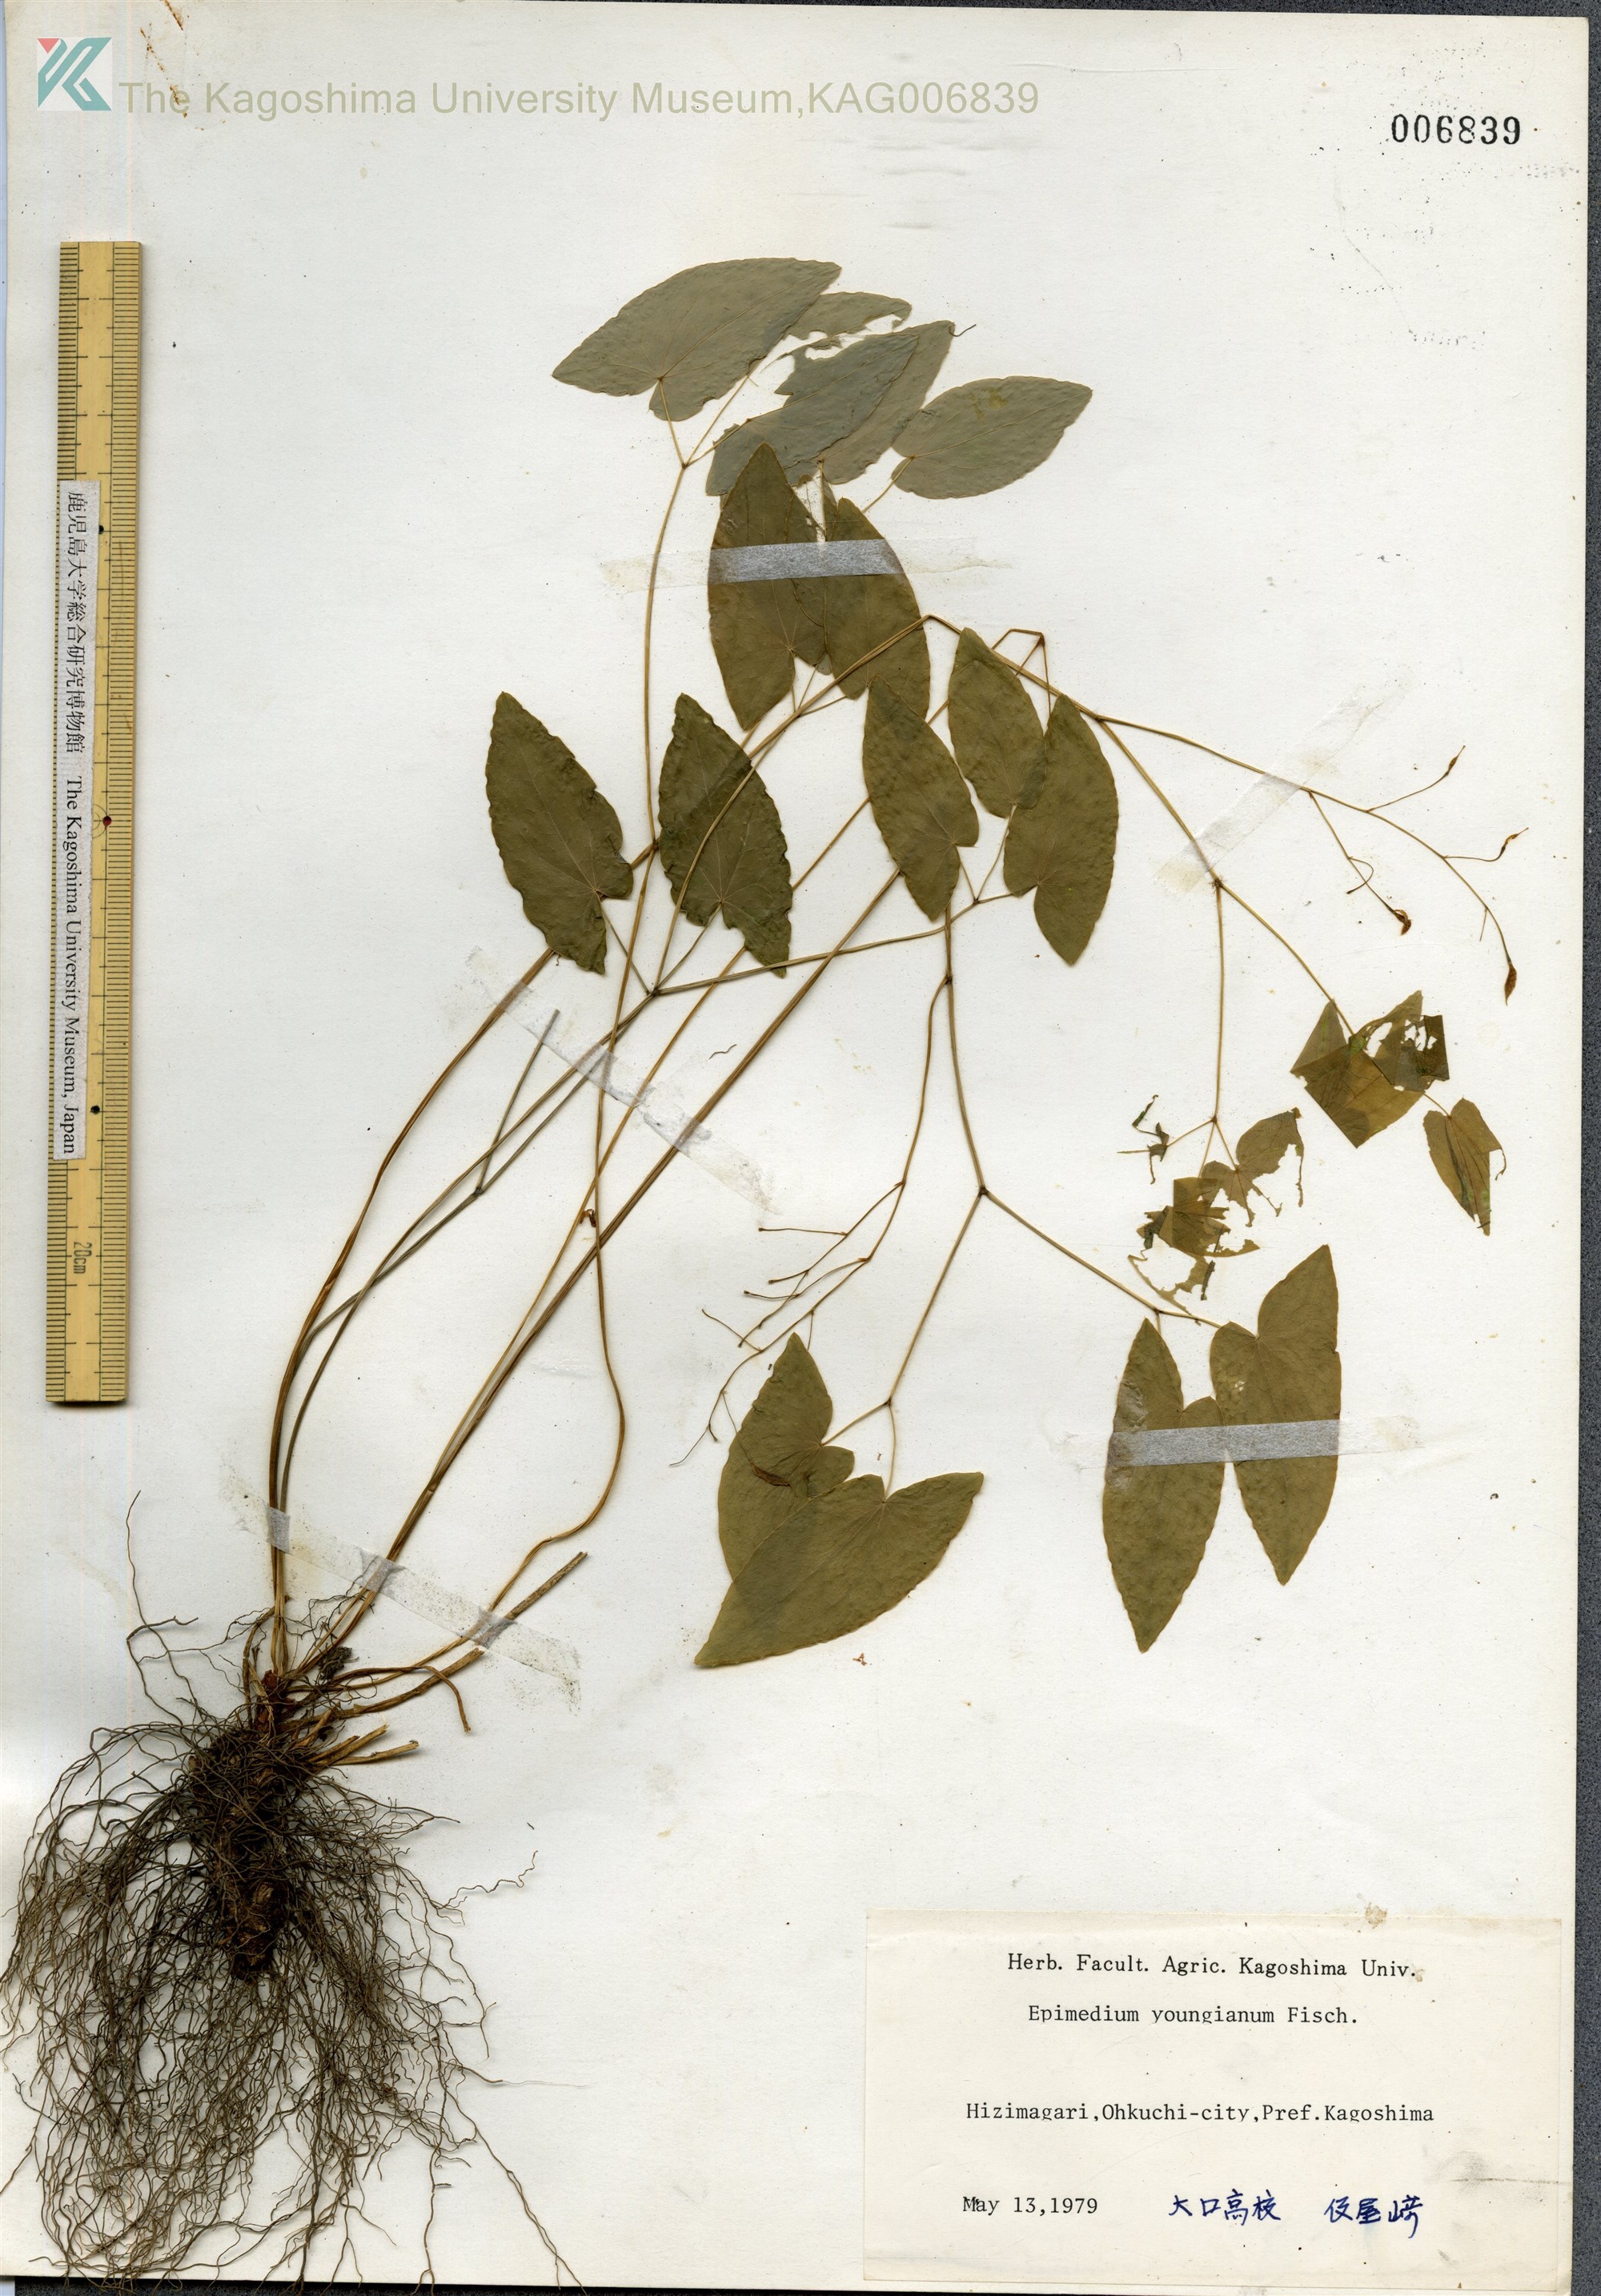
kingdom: Plantae
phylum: Tracheophyta
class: Magnoliopsida
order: Ranunculales
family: Berberidaceae
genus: Epimedium
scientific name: Epimedium youngianum
